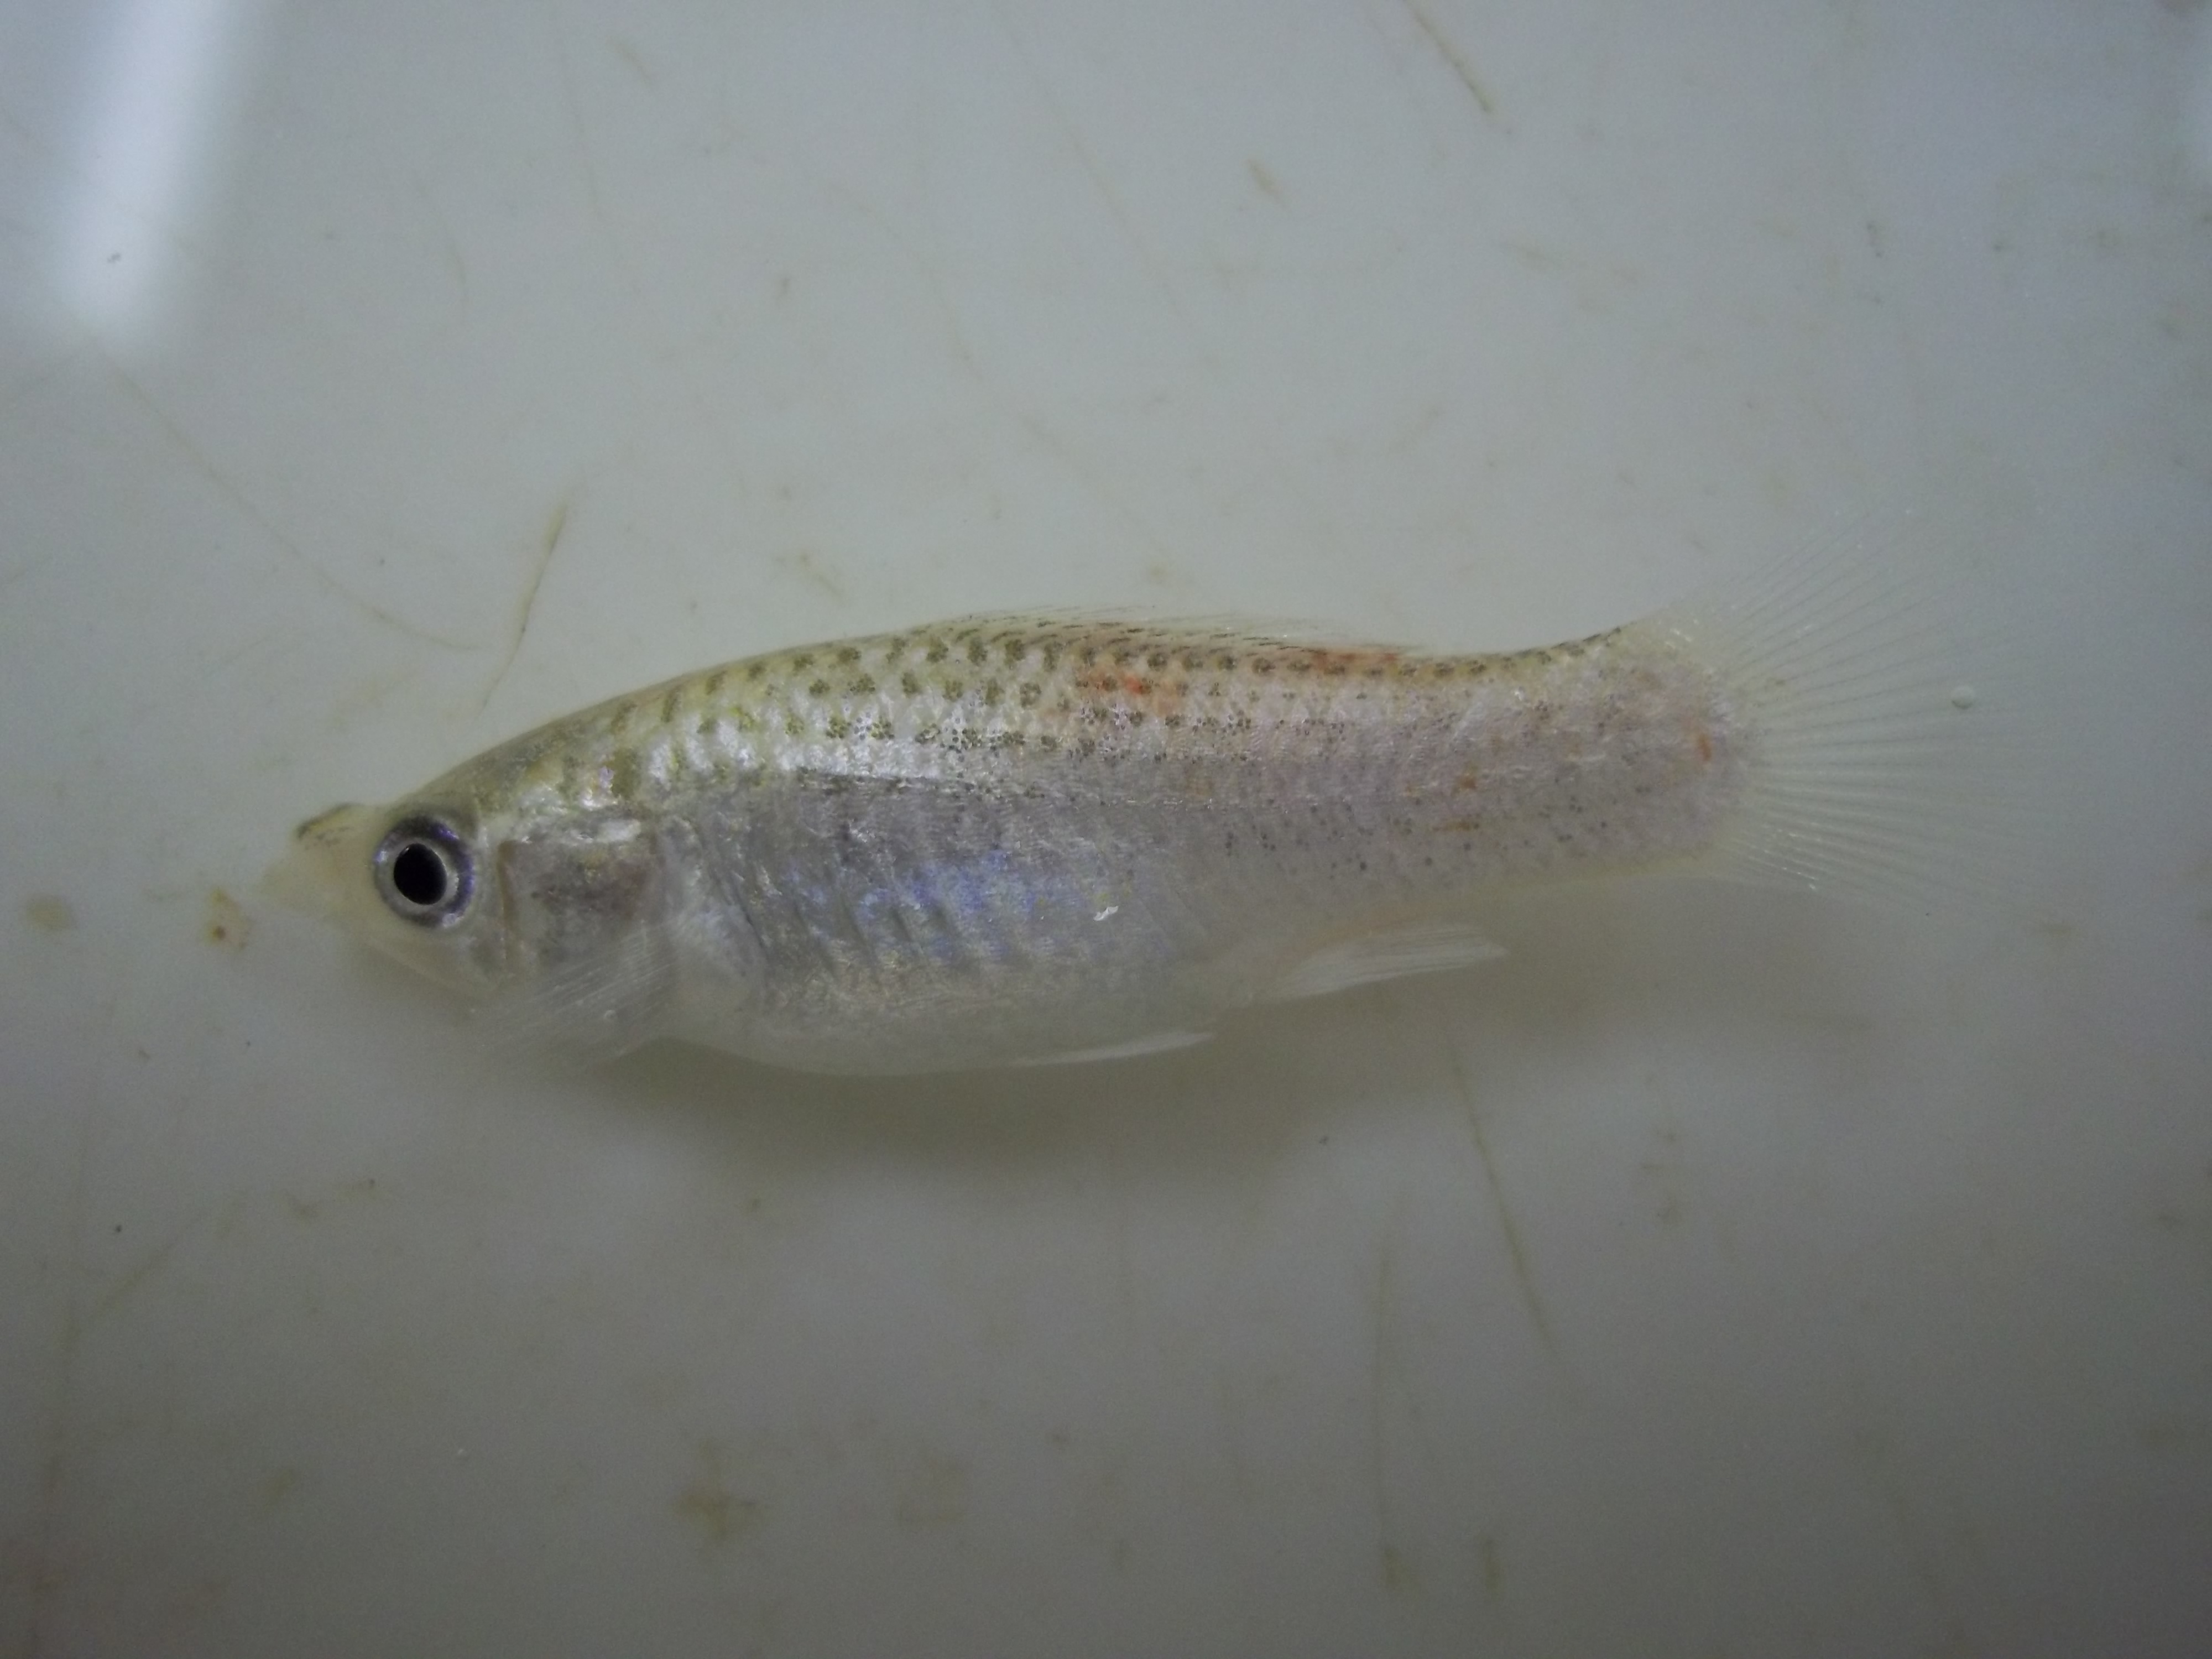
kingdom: Animalia
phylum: Chordata
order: Cyprinodontiformes
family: Poeciliidae
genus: Poecilia
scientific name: Poecilia velifera
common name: Sail-fin molly
